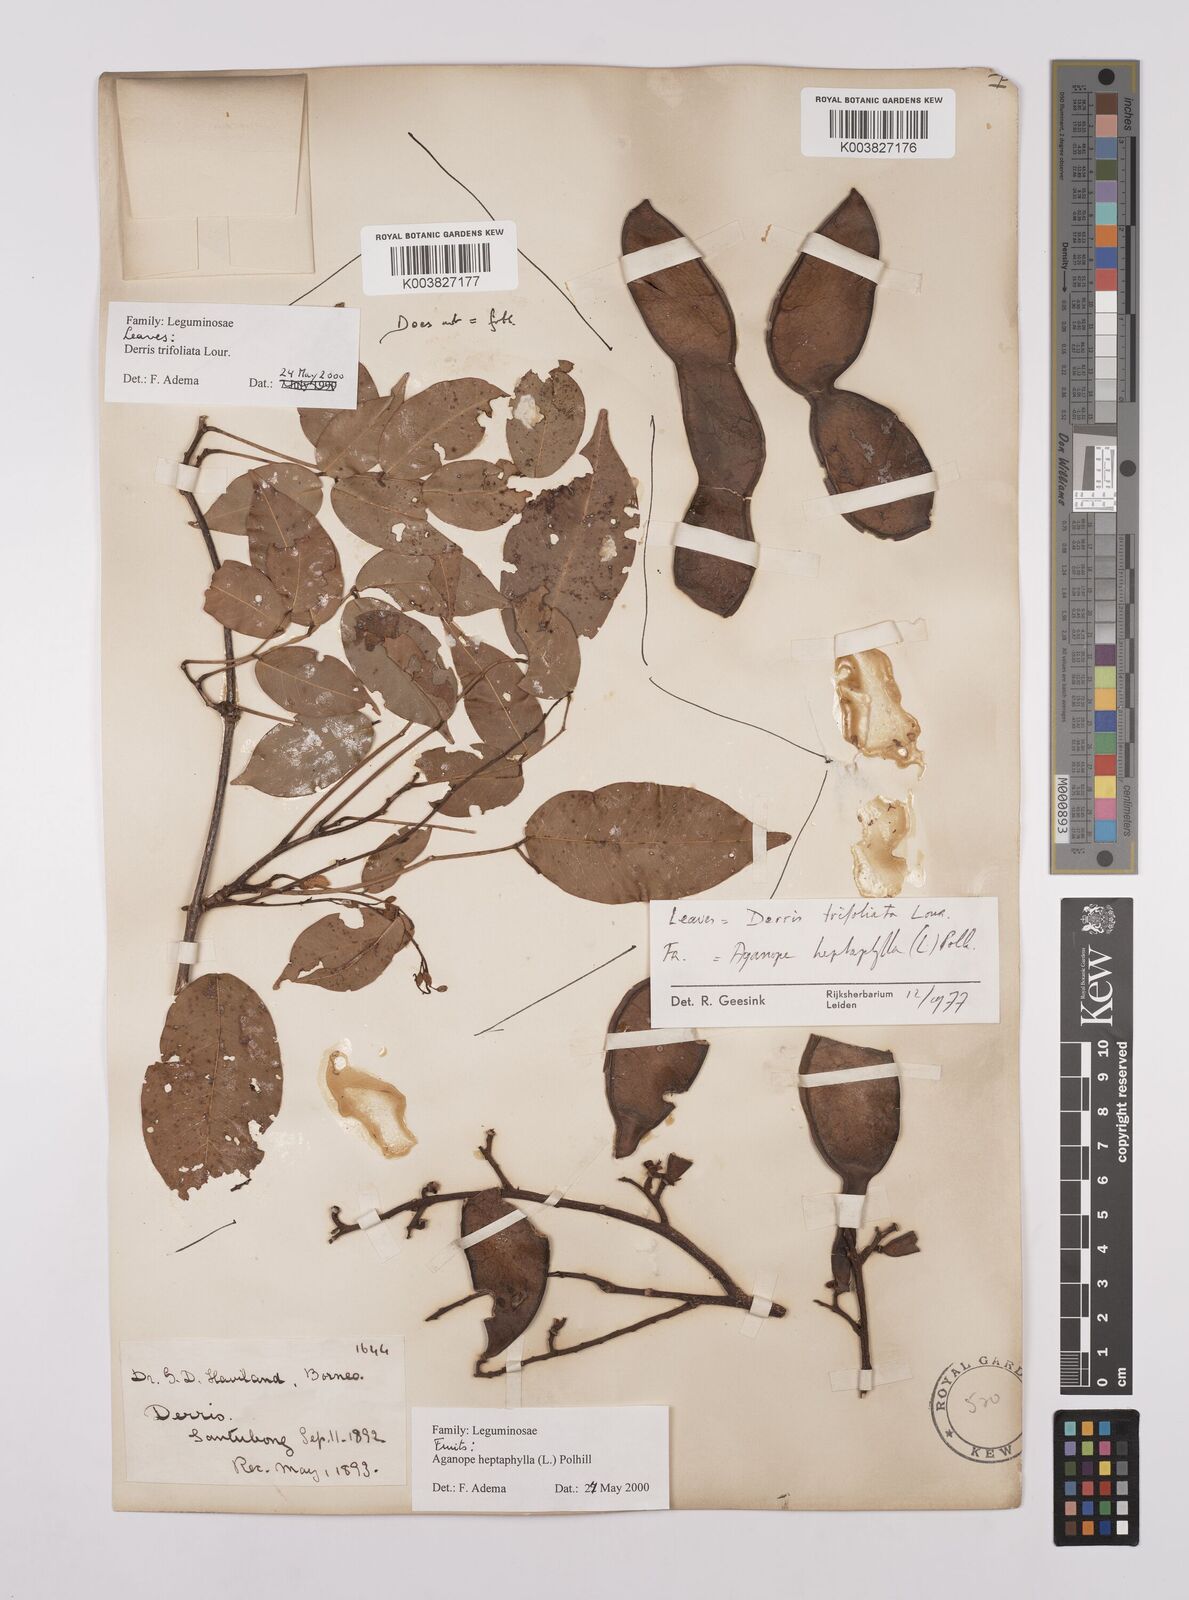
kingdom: Plantae
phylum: Tracheophyta
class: Magnoliopsida
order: Fabales
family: Fabaceae
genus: Derris
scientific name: Derris trifoliata
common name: Three-leaf derris
